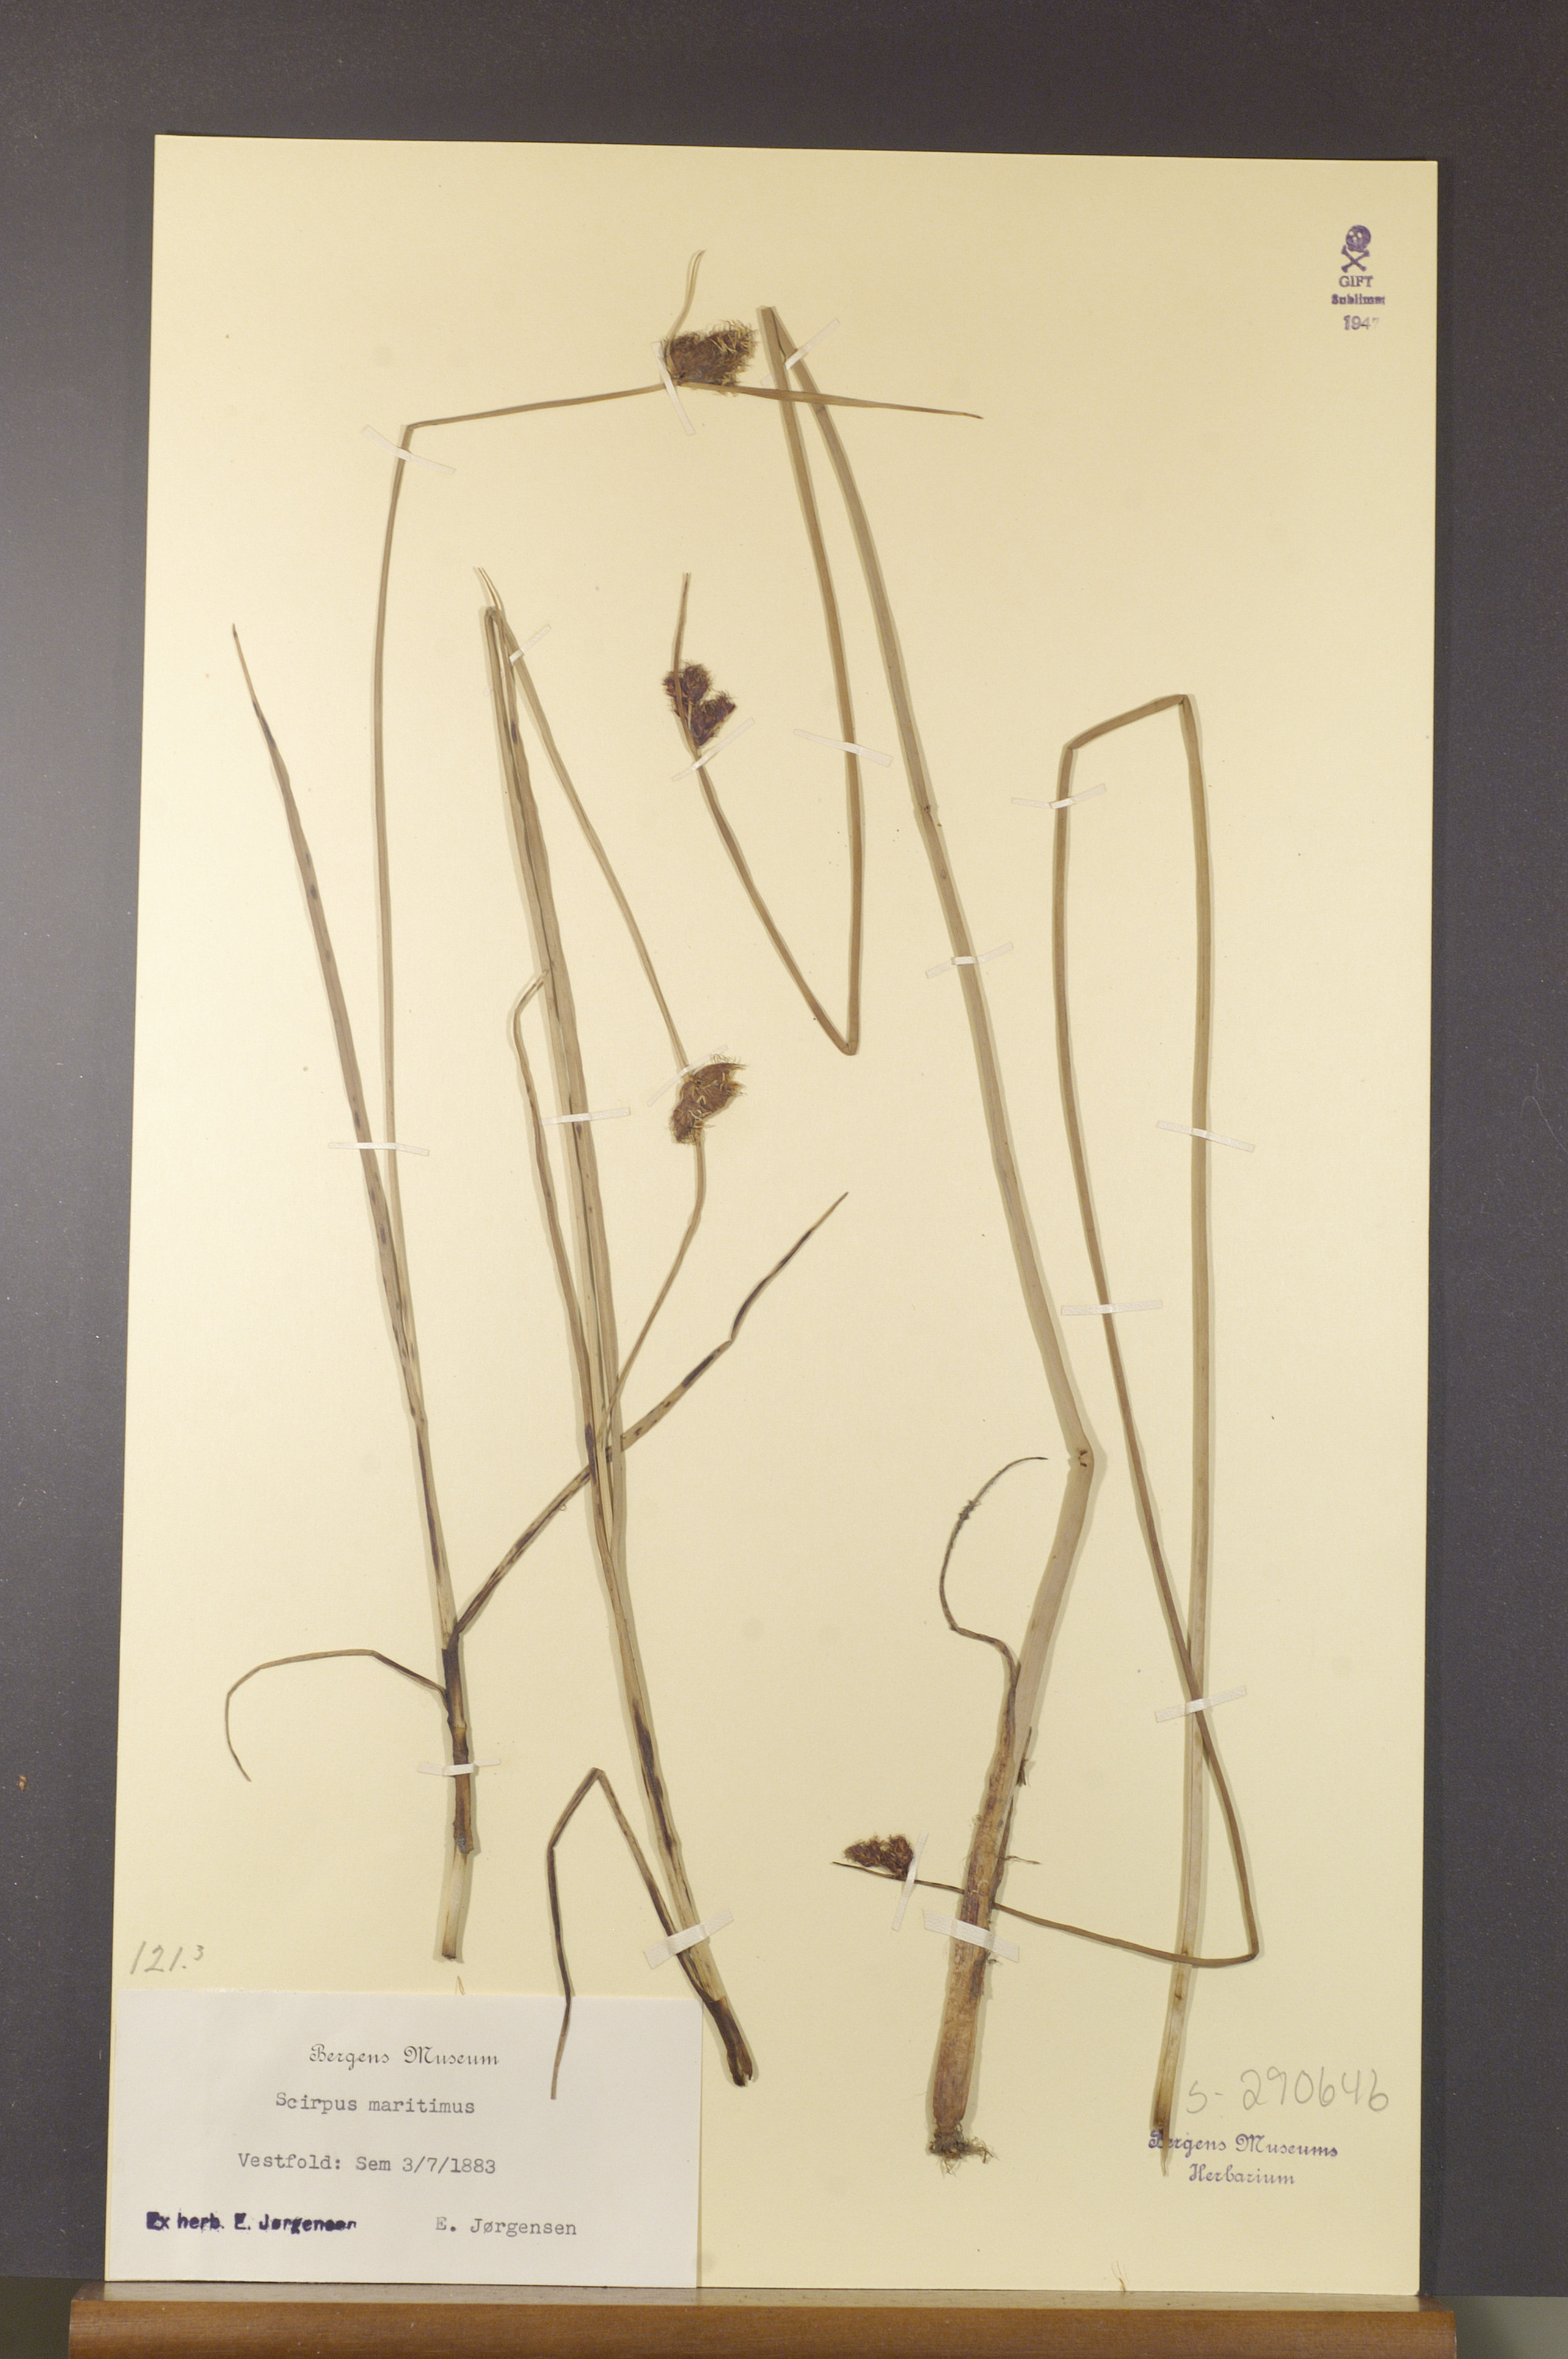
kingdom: Plantae
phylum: Tracheophyta
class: Liliopsida
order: Poales
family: Cyperaceae
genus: Bolboschoenus
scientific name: Bolboschoenus maritimus
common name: Sea club-rush
